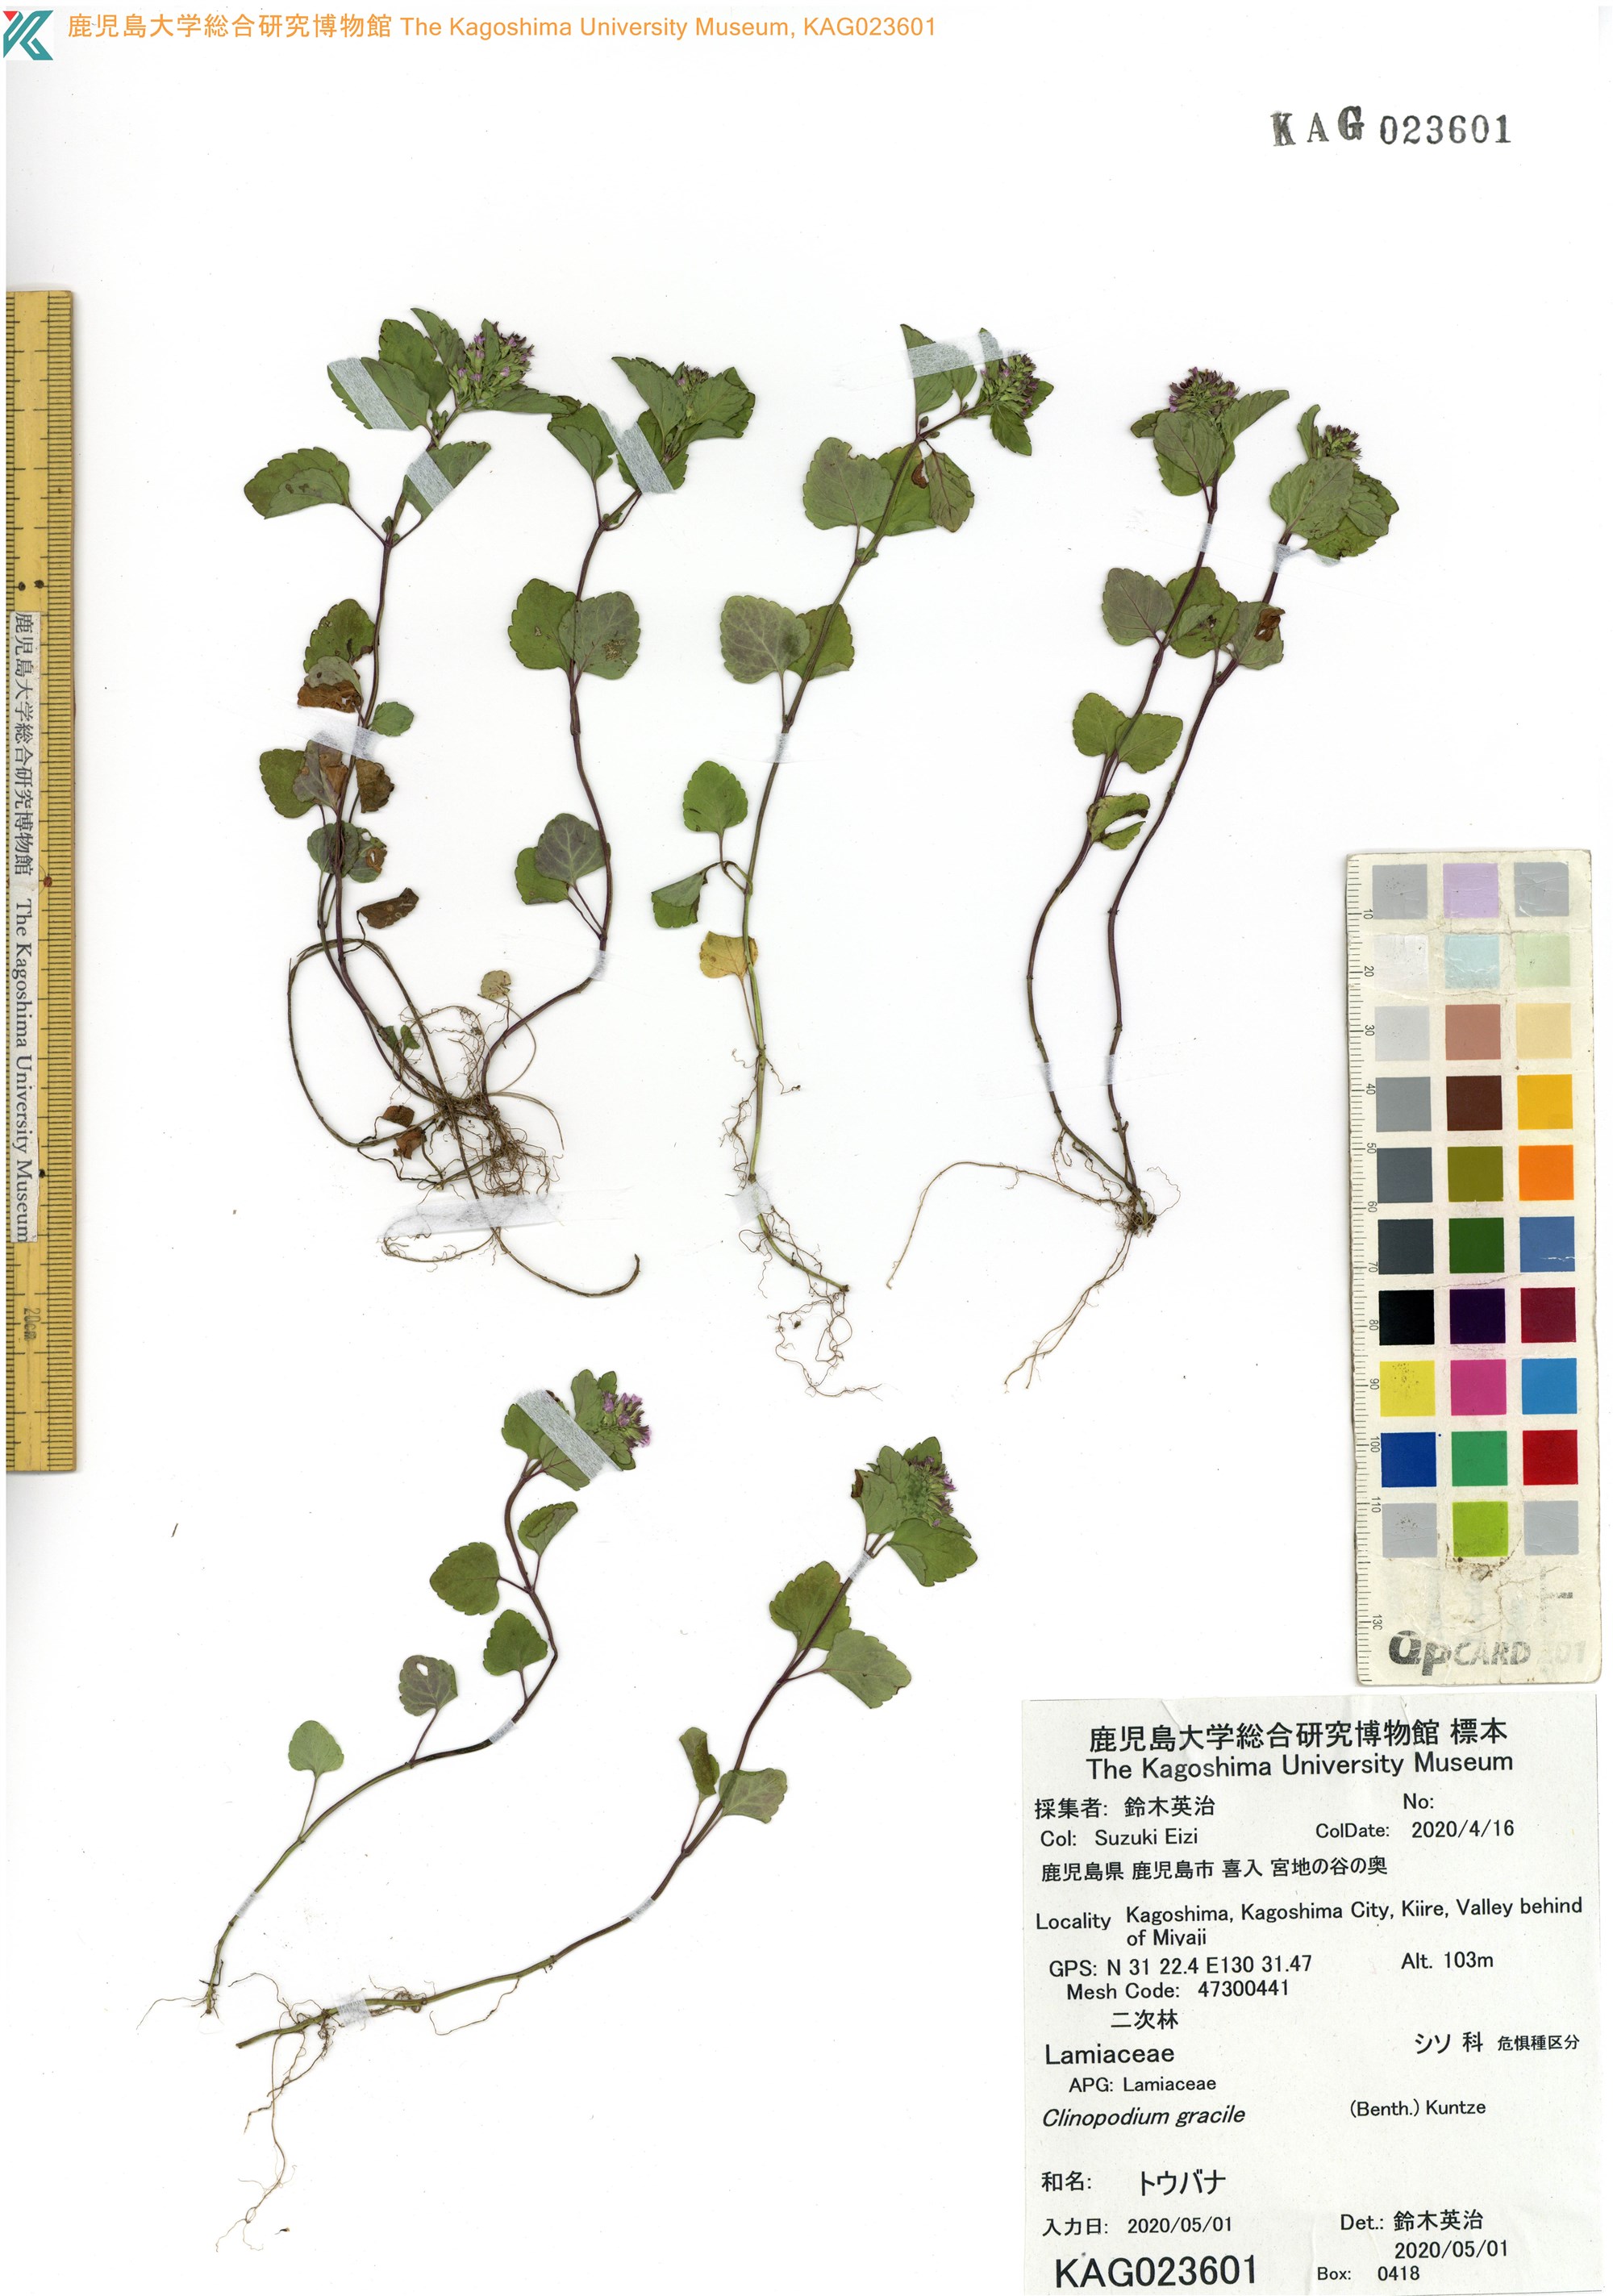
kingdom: Plantae
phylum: Tracheophyta
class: Magnoliopsida
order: Lamiales
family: Lamiaceae
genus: Clinopodium
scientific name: Clinopodium gracile
